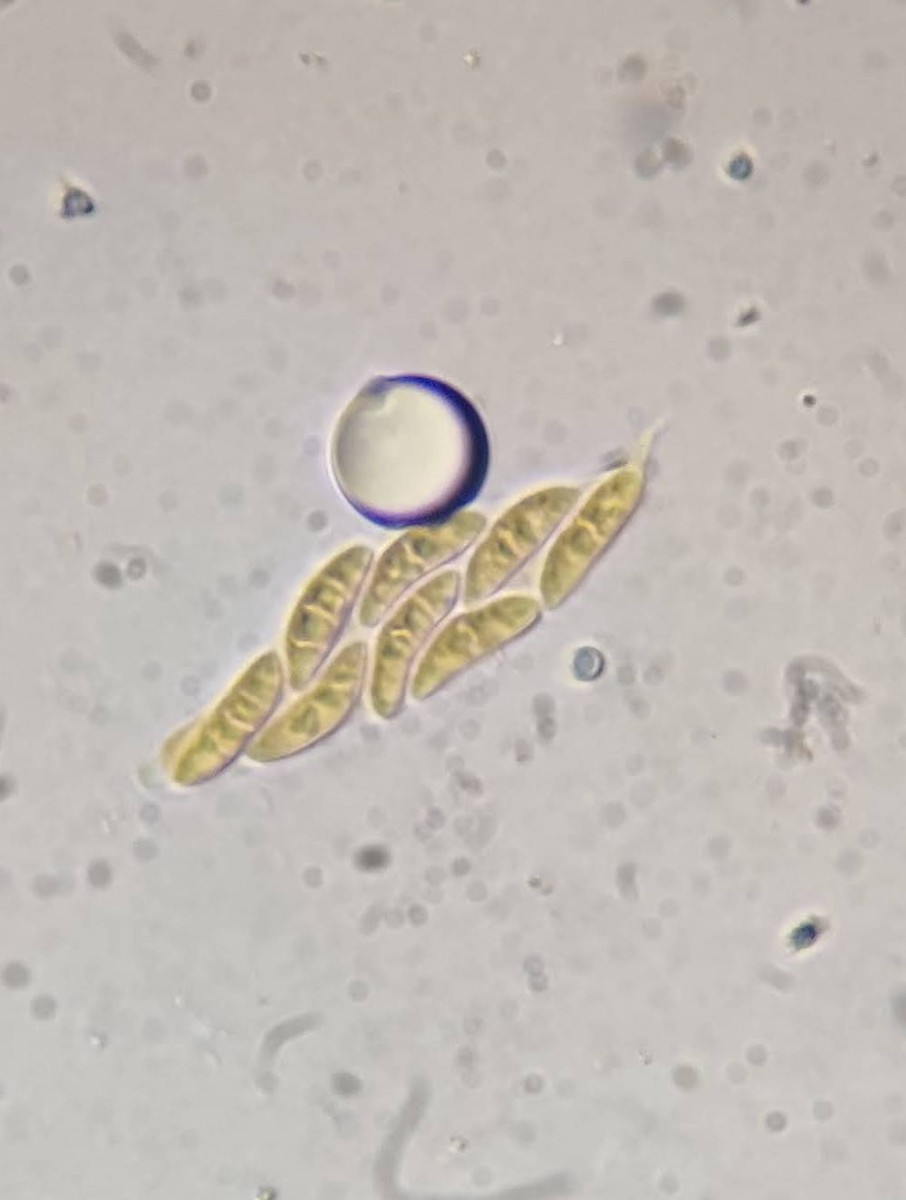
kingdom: Fungi
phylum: Ascomycota
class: Sordariomycetes
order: Diaporthales
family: Gnomoniaceae
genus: Phragmoporthe
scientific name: Phragmoporthe conformis
